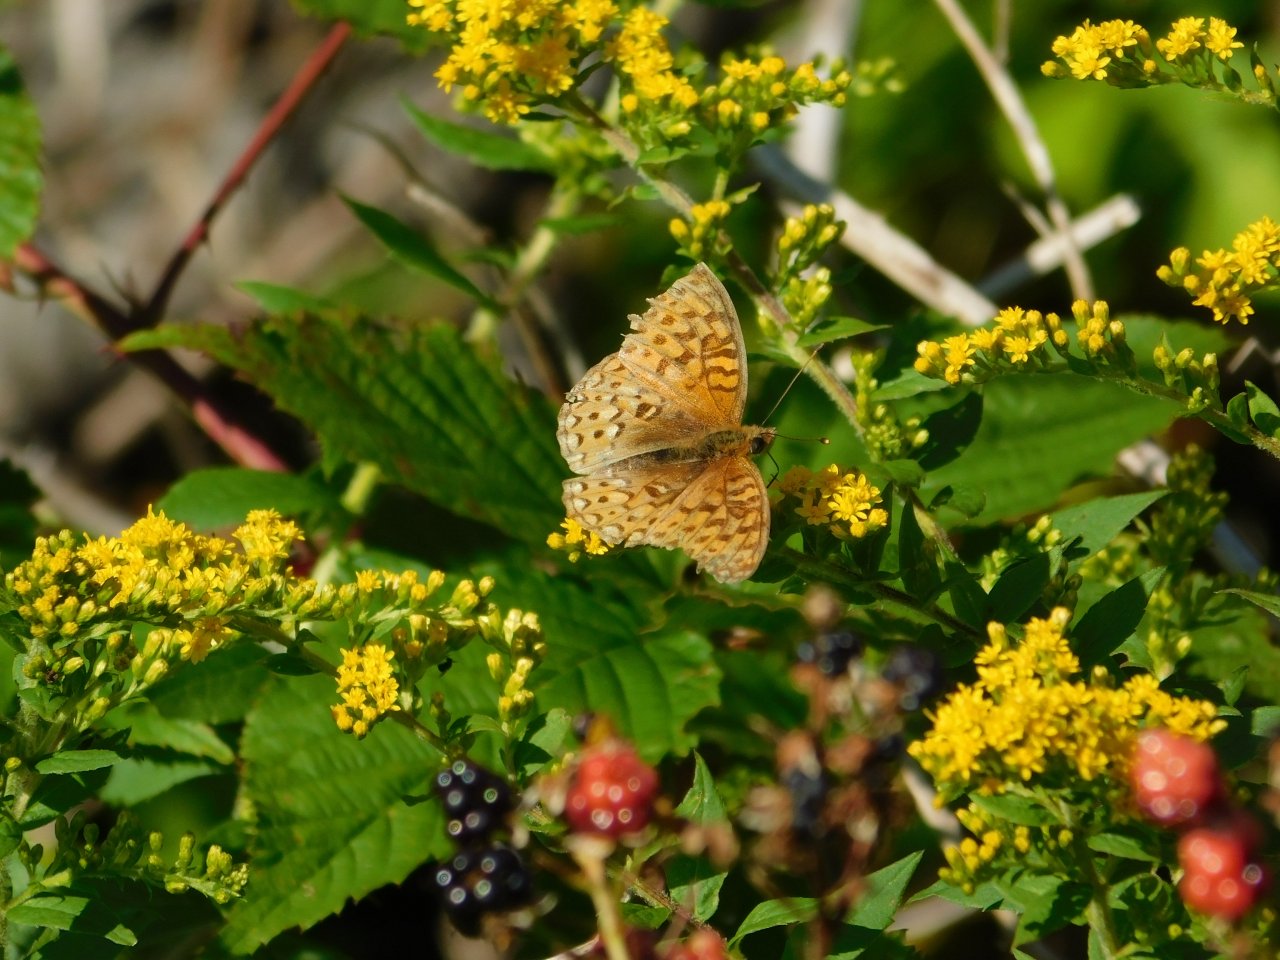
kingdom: Animalia
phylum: Arthropoda
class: Insecta
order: Lepidoptera
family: Nymphalidae
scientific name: Nymphalidae
